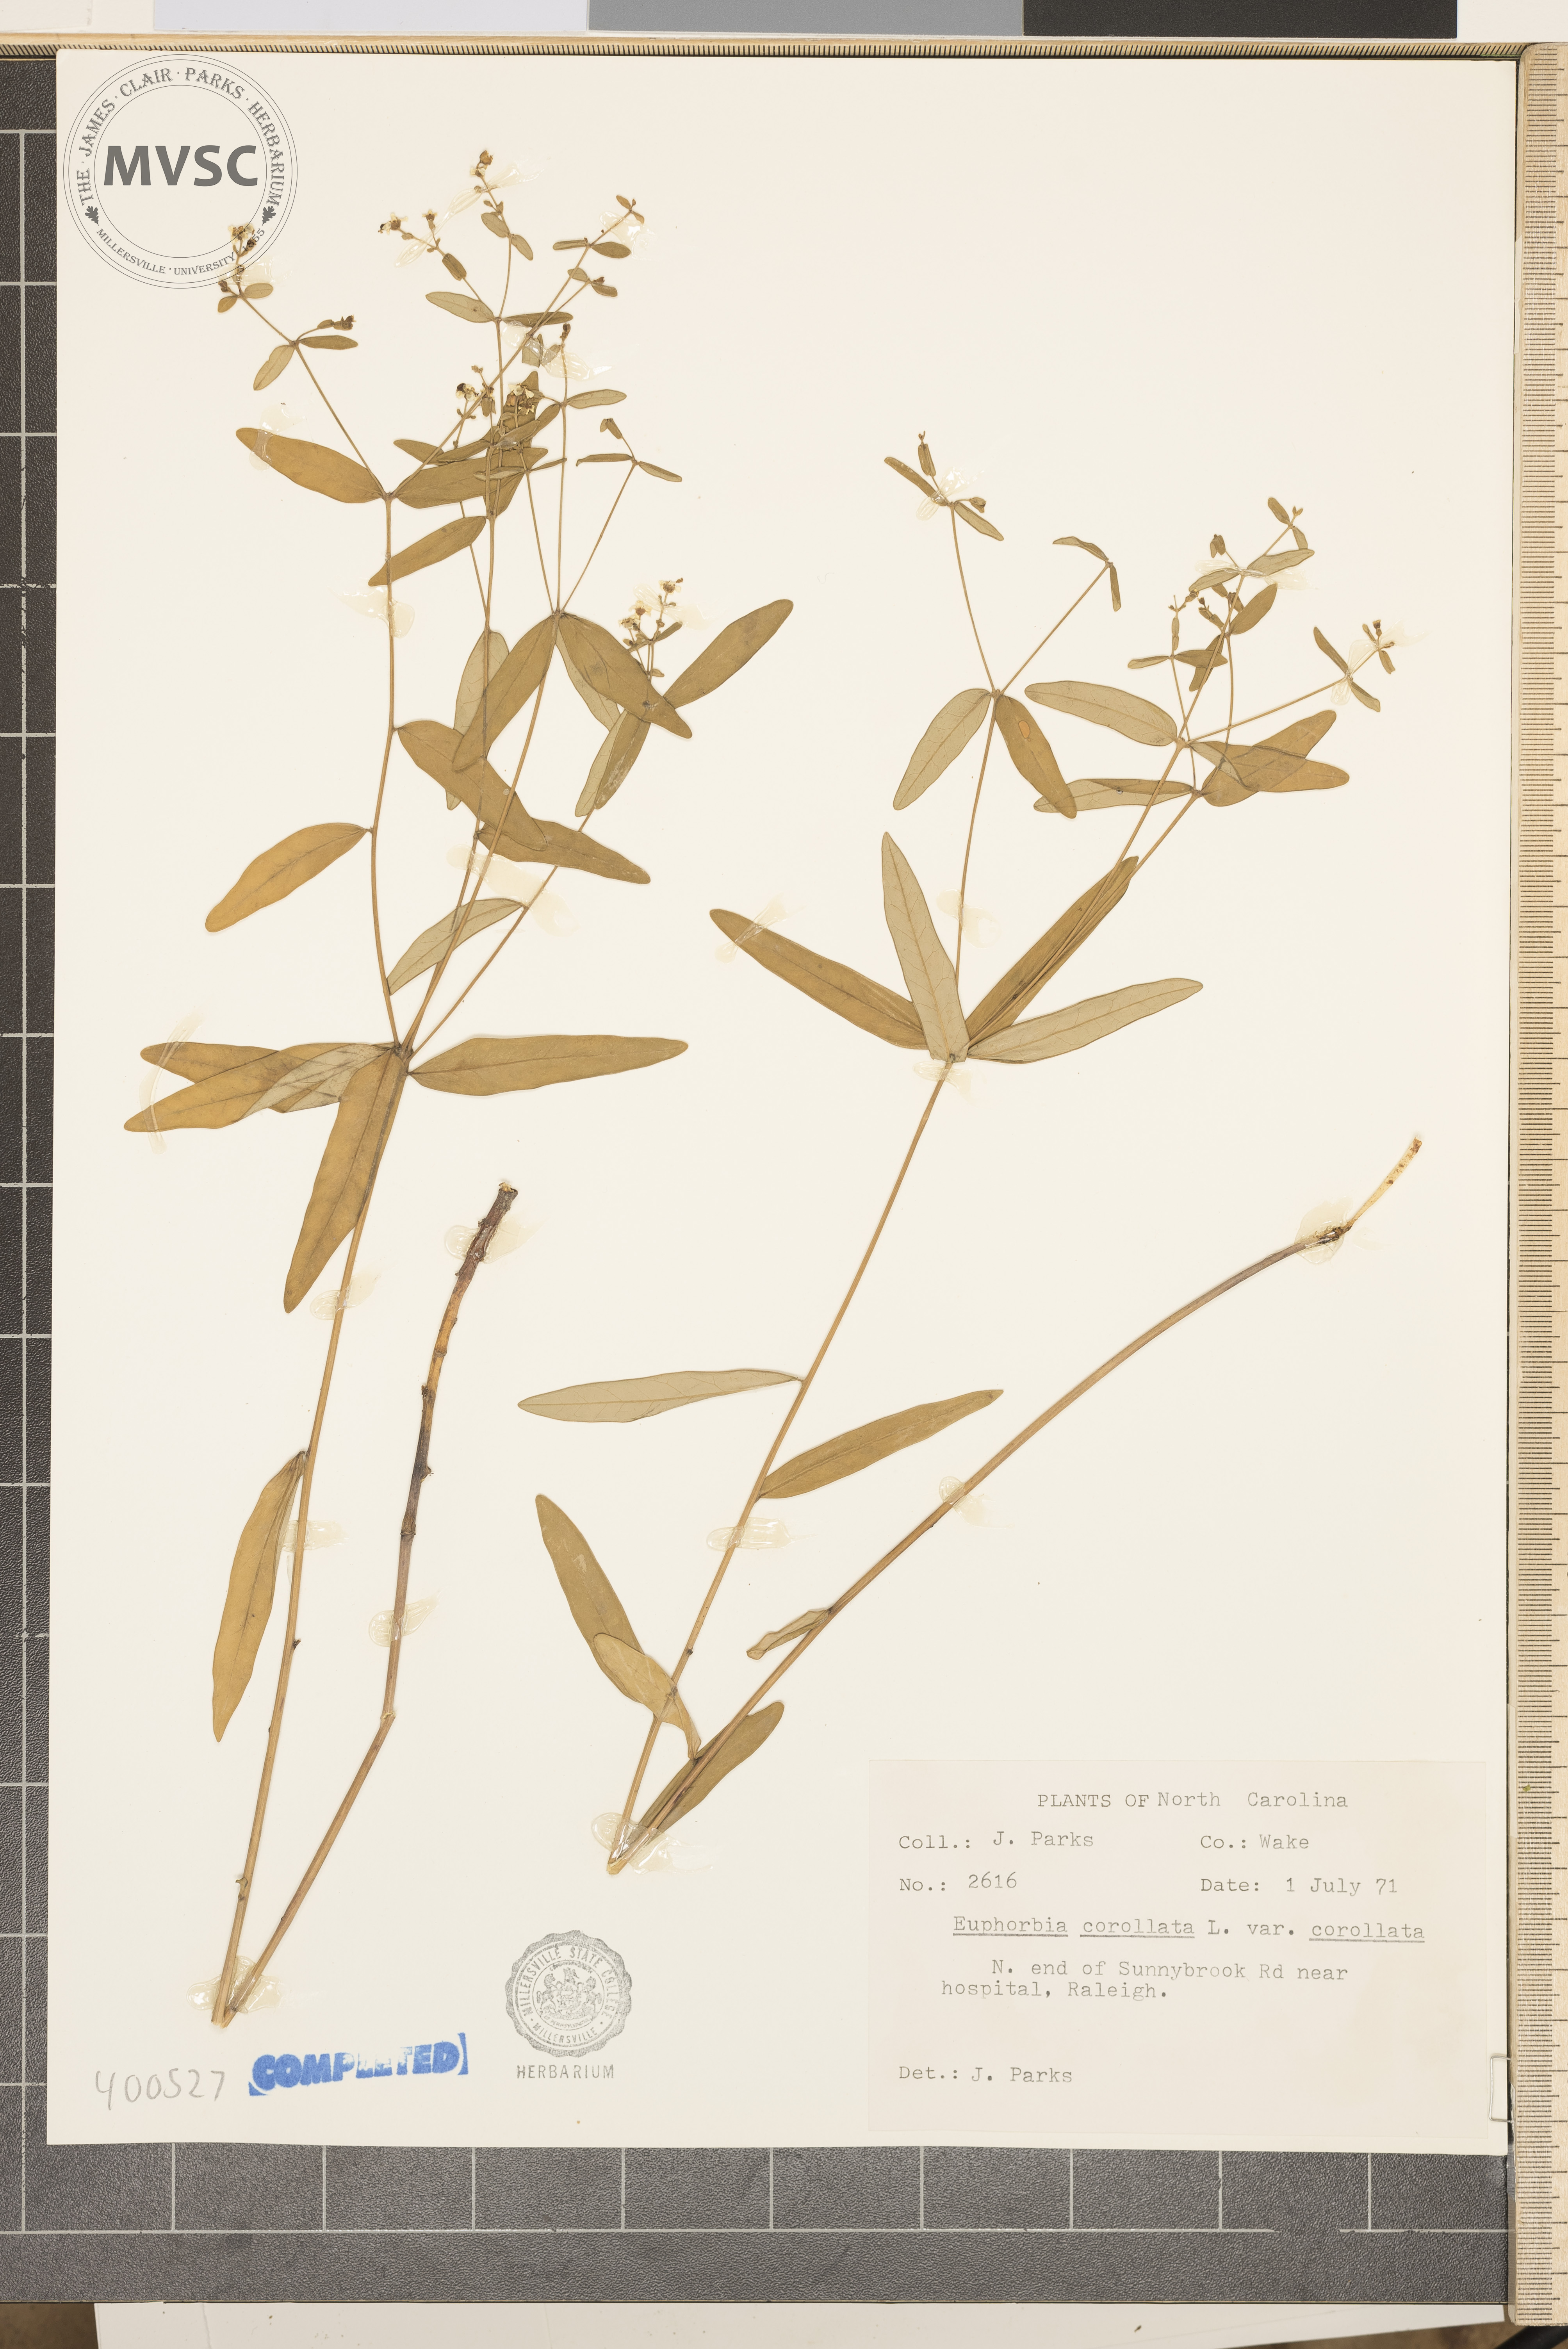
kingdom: Plantae
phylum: Tracheophyta
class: Magnoliopsida
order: Malpighiales
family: Euphorbiaceae
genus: Euphorbia
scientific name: Euphorbia corollata
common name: Flowering Spurge
